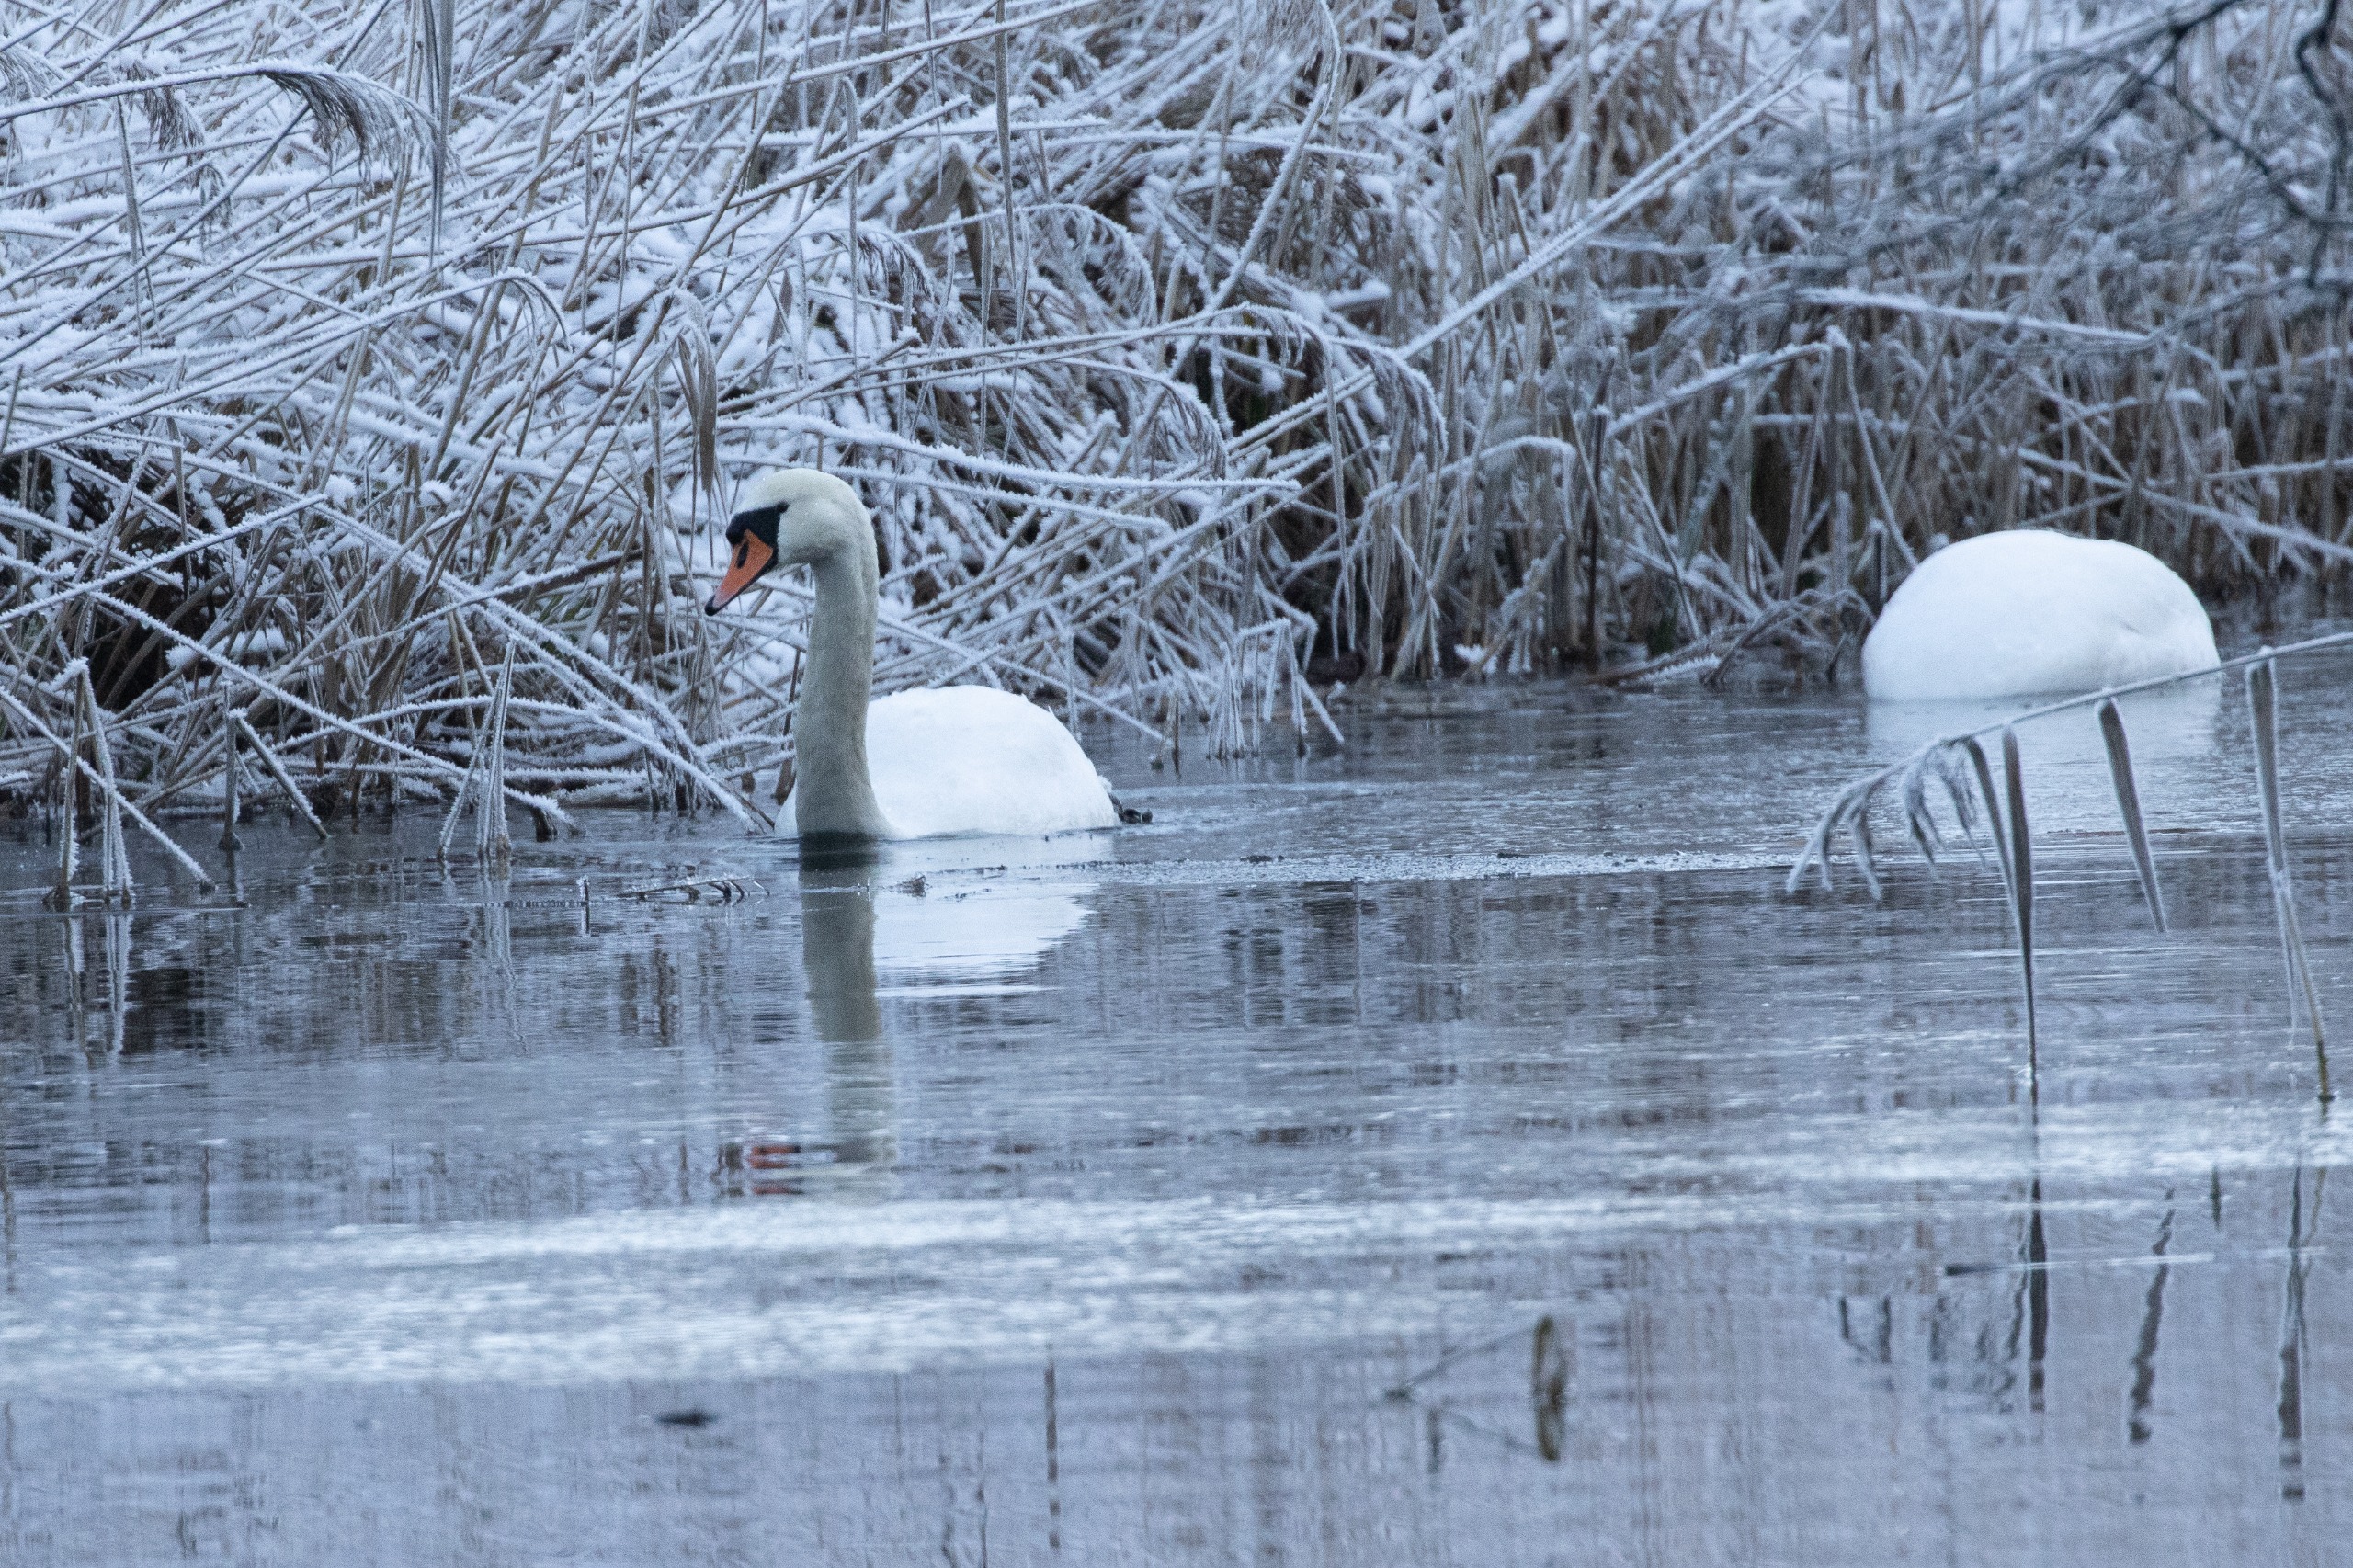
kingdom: Animalia
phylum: Chordata
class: Aves
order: Anseriformes
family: Anatidae
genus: Cygnus
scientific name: Cygnus olor
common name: Knopsvane
